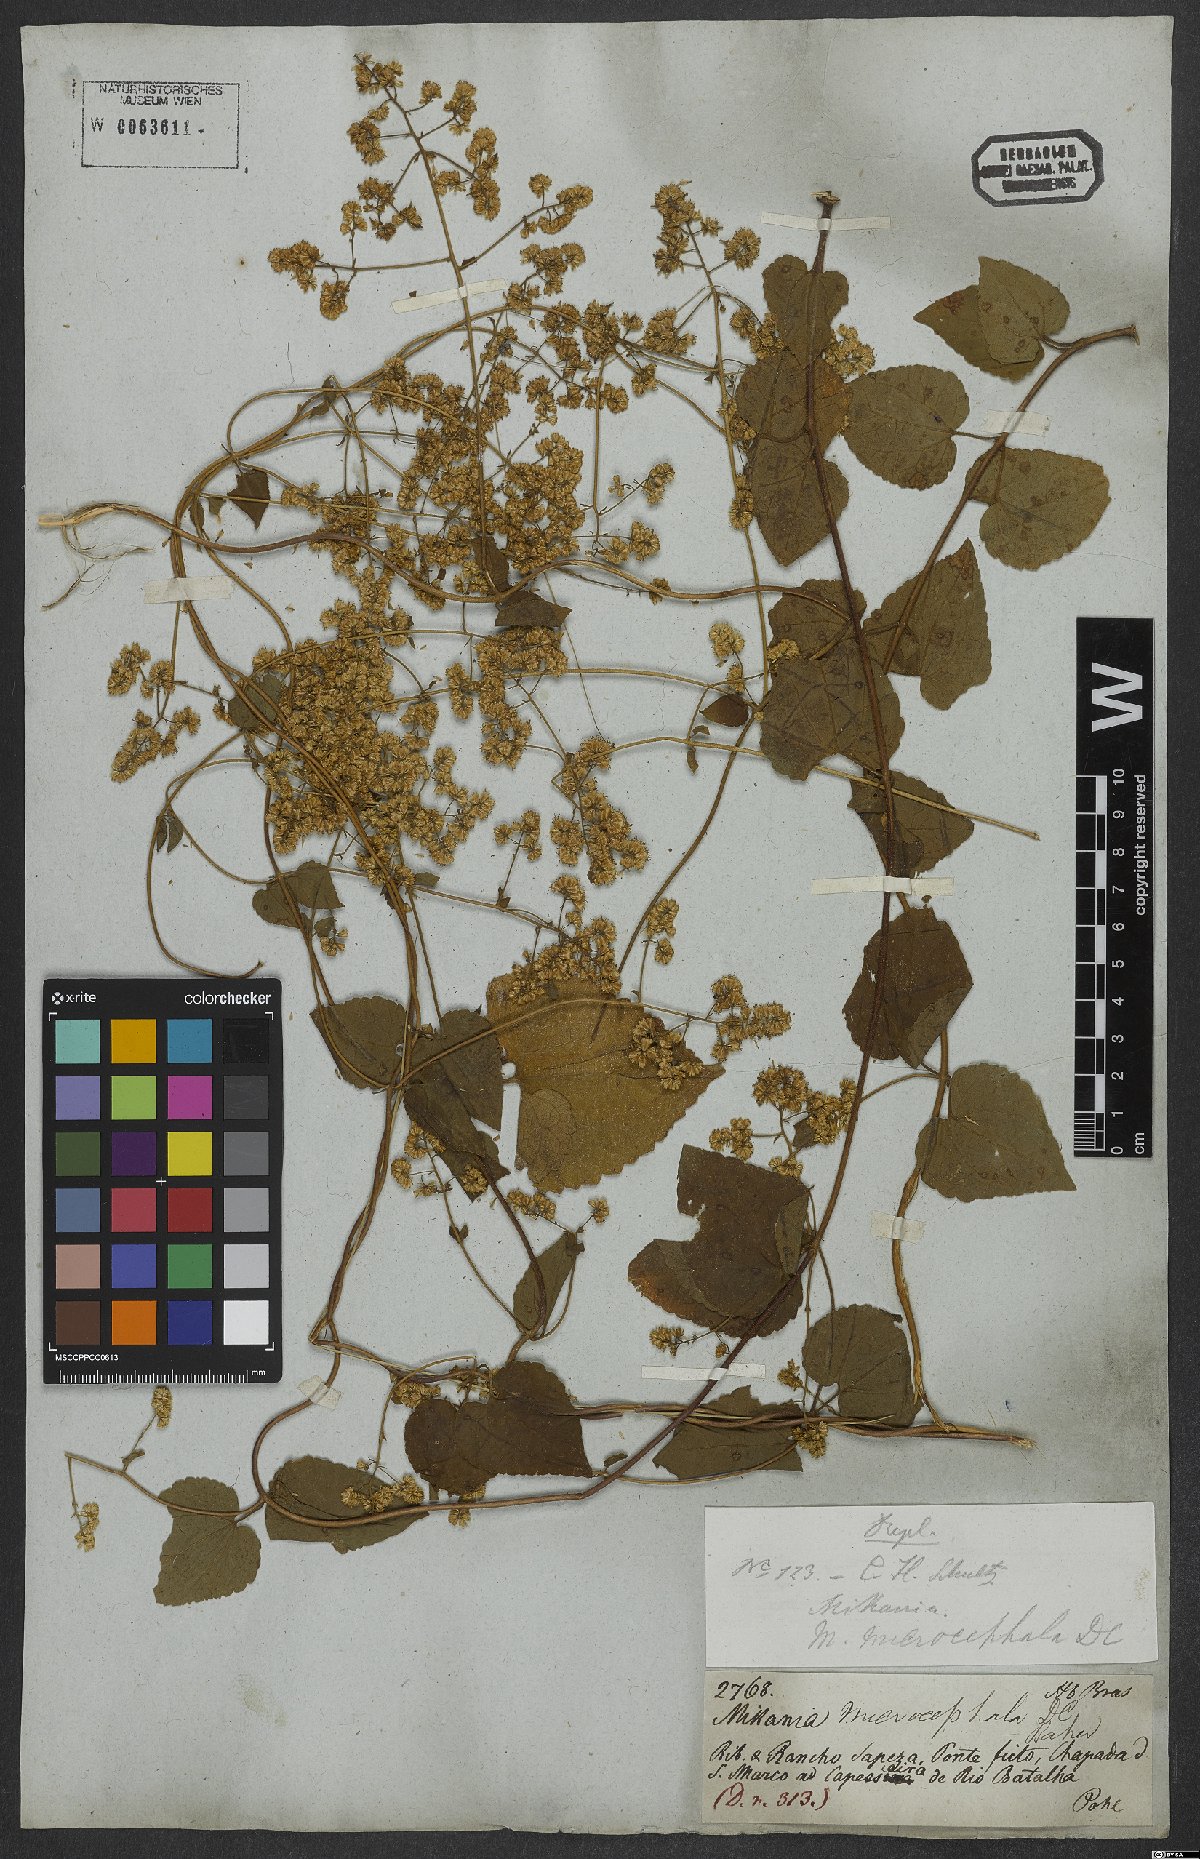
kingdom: Plantae
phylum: Tracheophyta
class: Magnoliopsida
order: Asterales
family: Asteraceae
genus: Mikania
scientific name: Mikania microcephala
